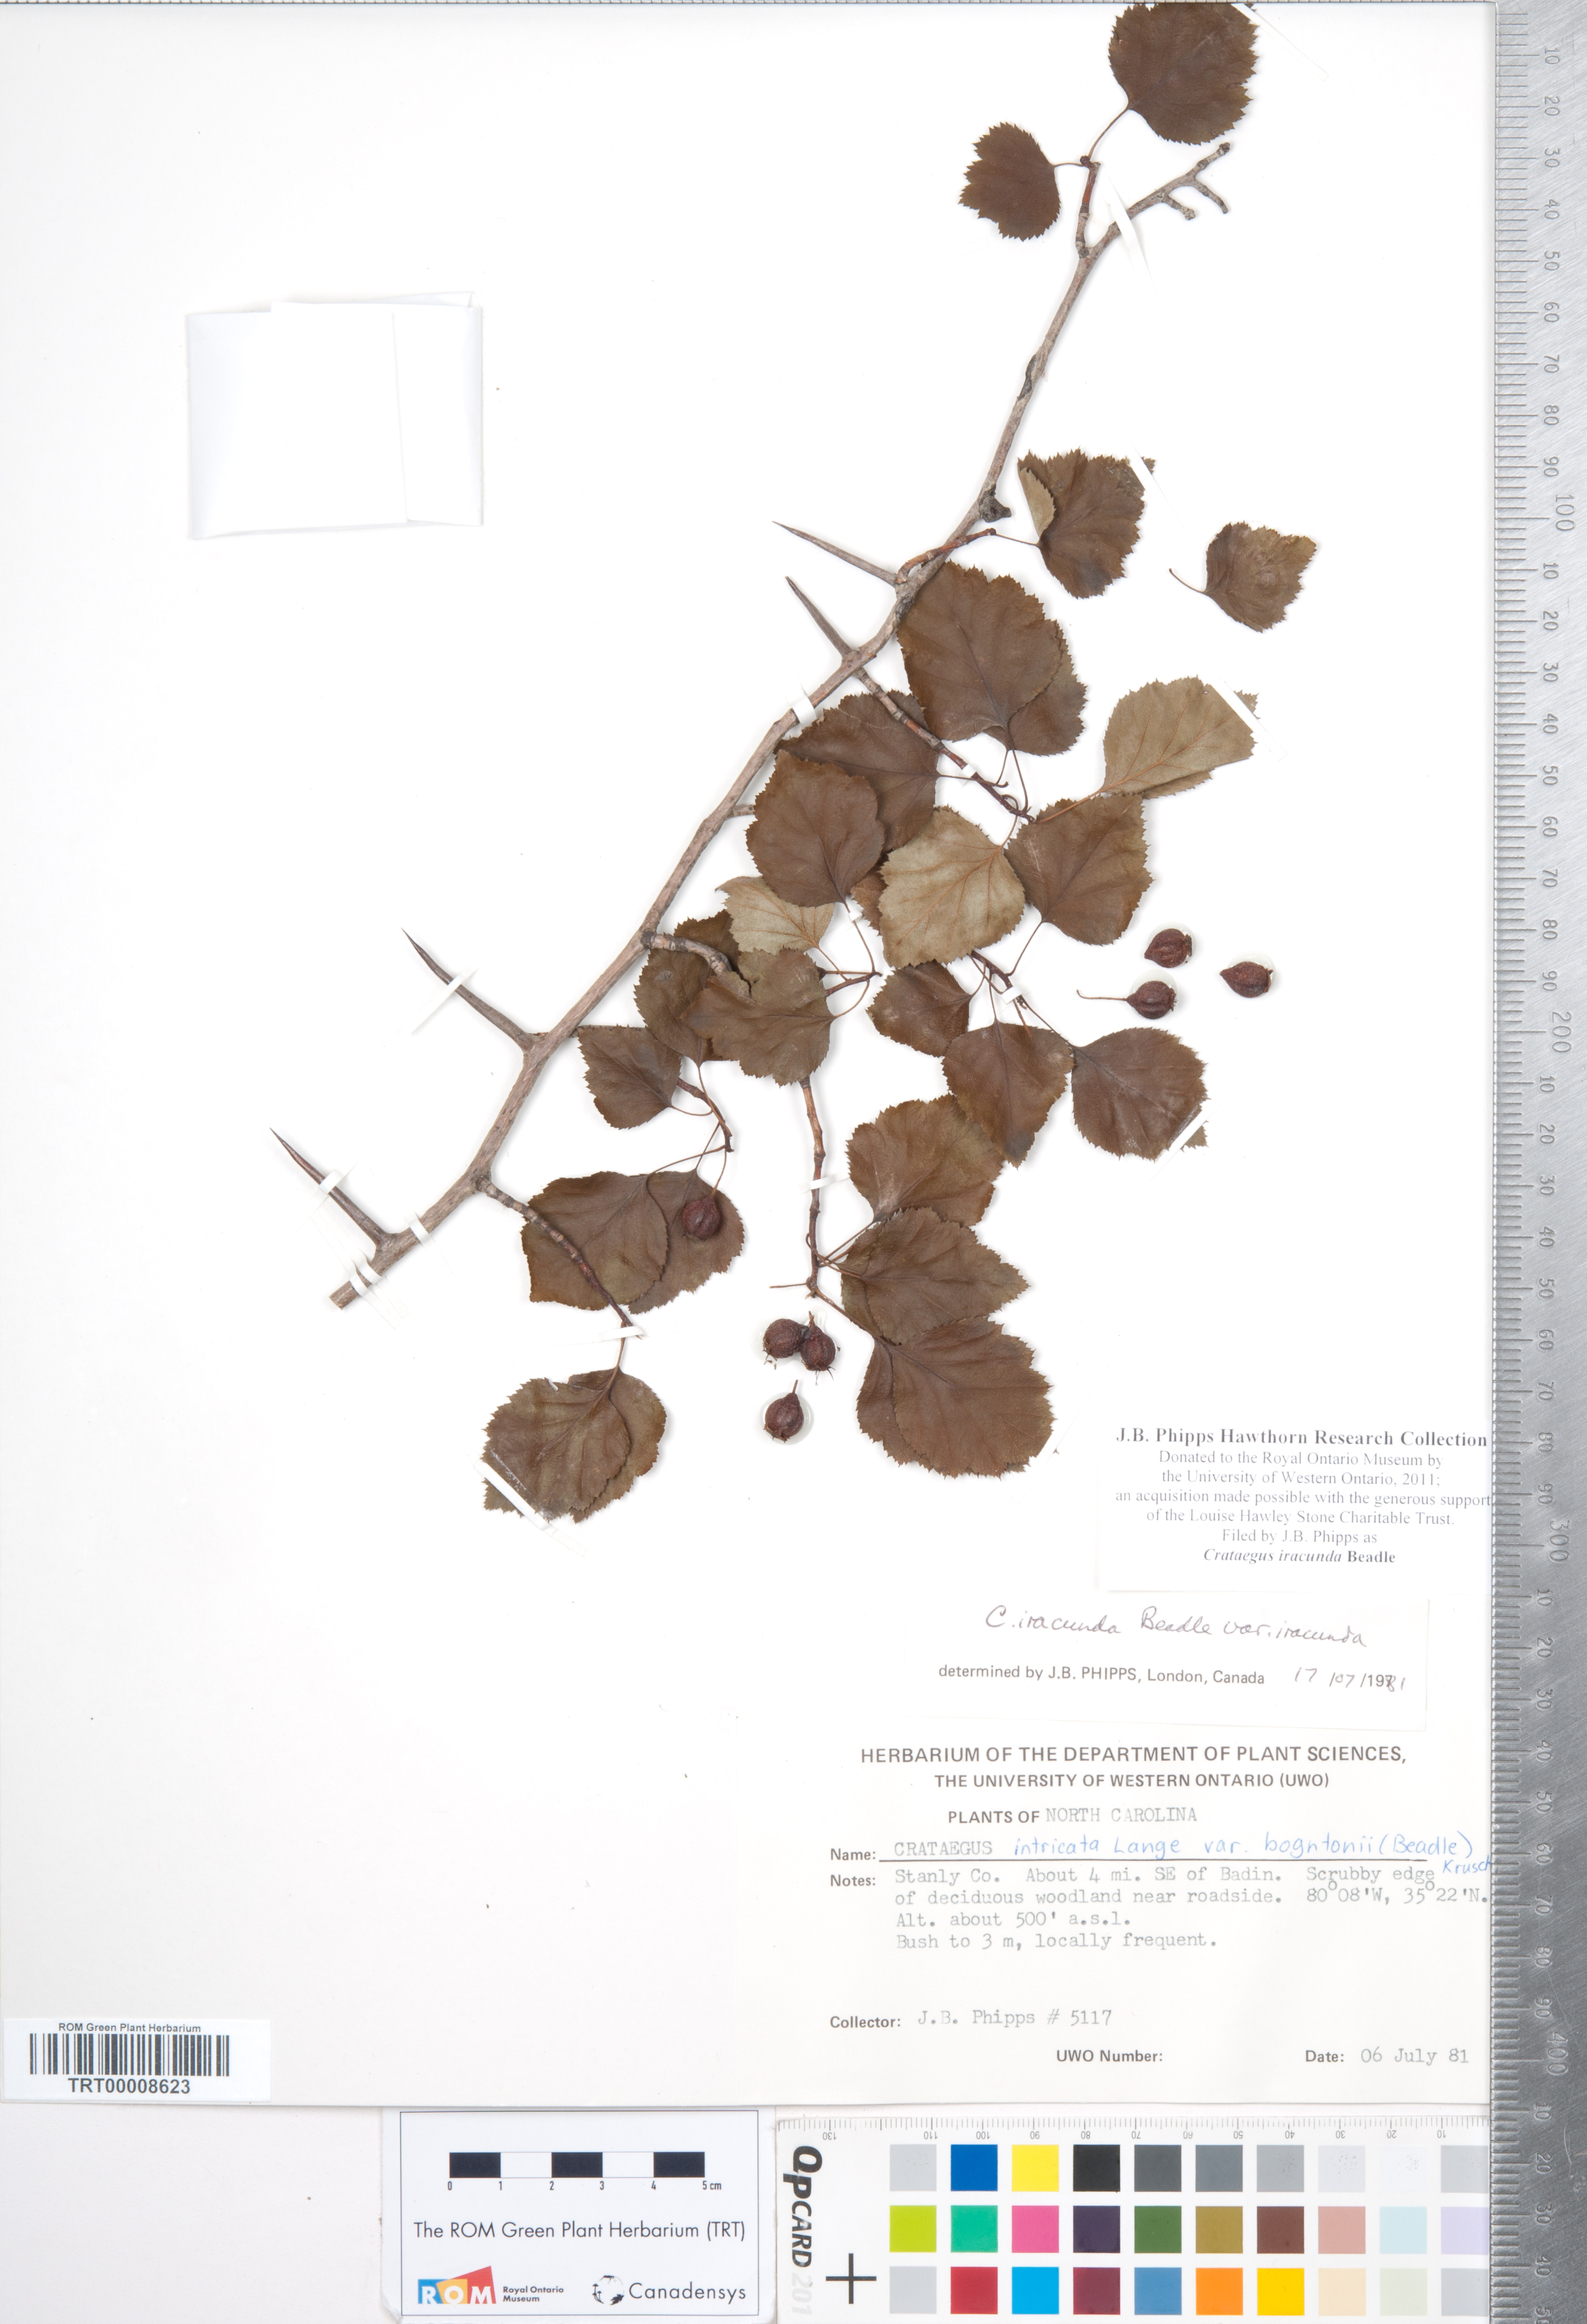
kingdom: Plantae
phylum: Tracheophyta
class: Magnoliopsida
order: Rosales
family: Rosaceae
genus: Crataegus
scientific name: Crataegus iracunda
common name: Stolon-bearing hawthorn
